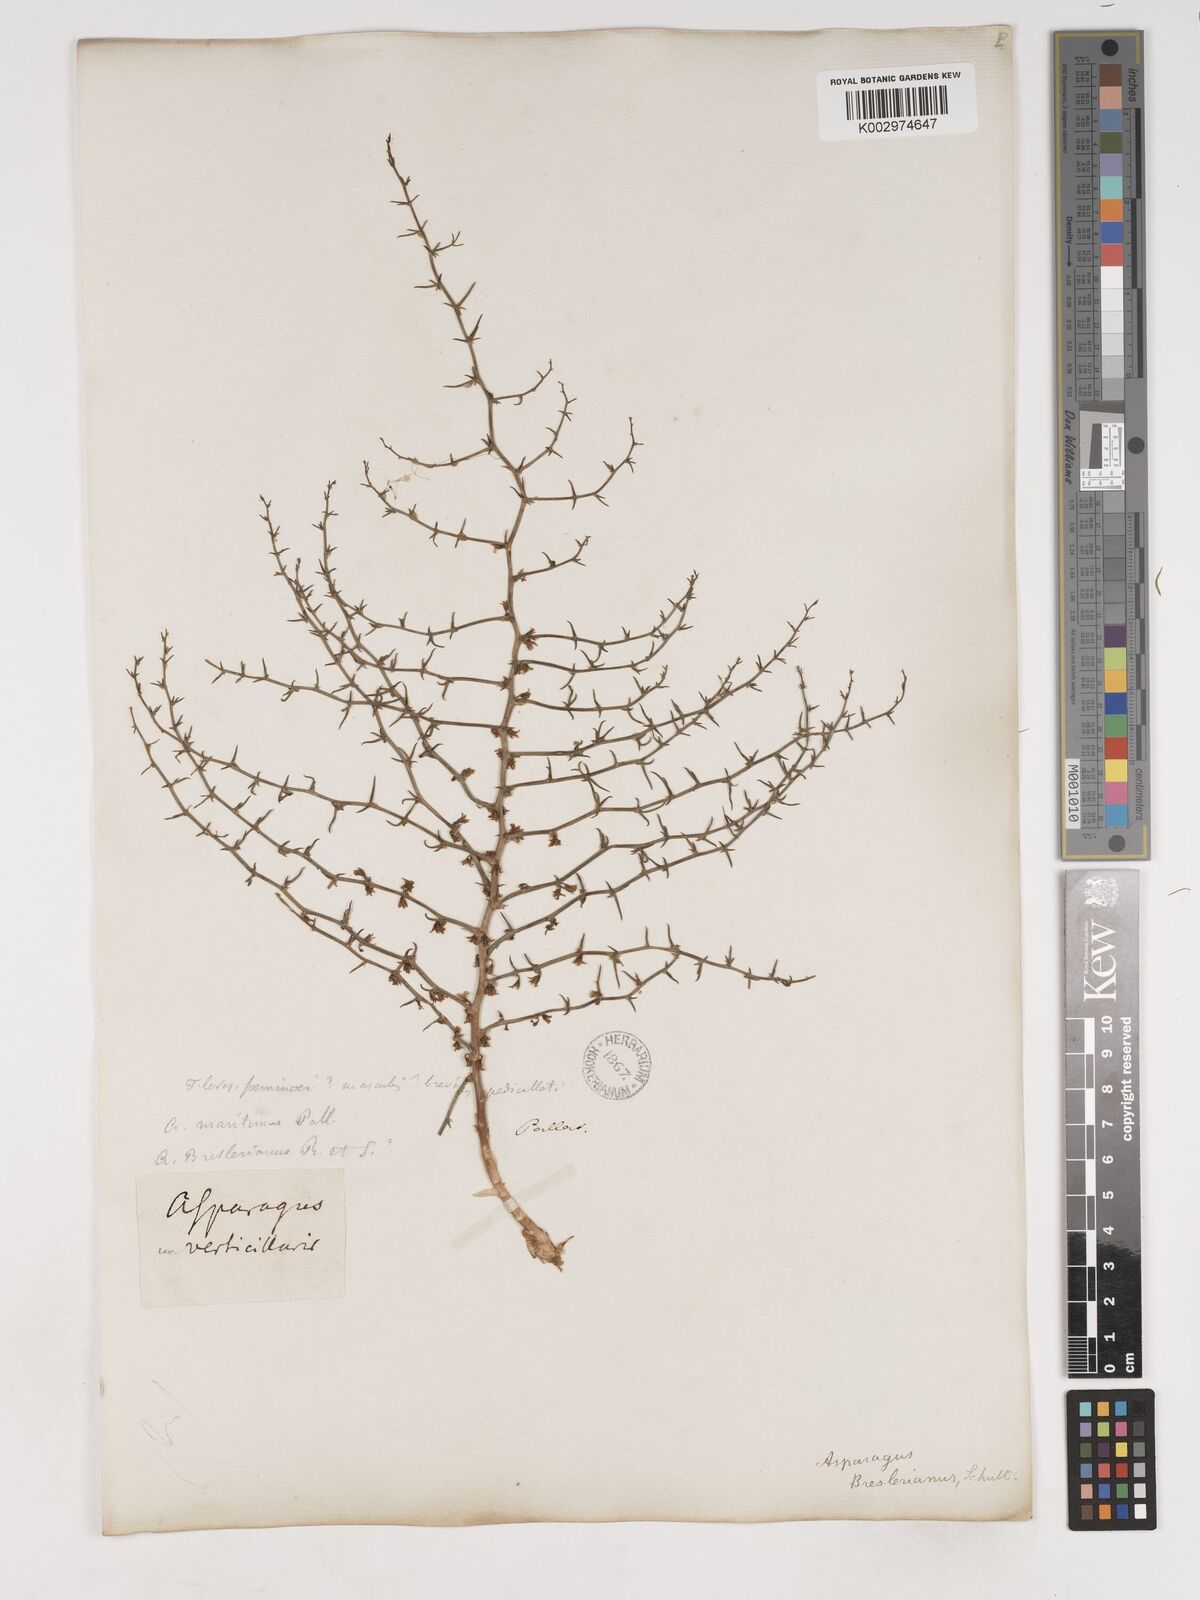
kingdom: Plantae
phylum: Tracheophyta
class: Liliopsida
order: Asparagales
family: Asparagaceae
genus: Asparagus
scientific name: Asparagus breslerianus
